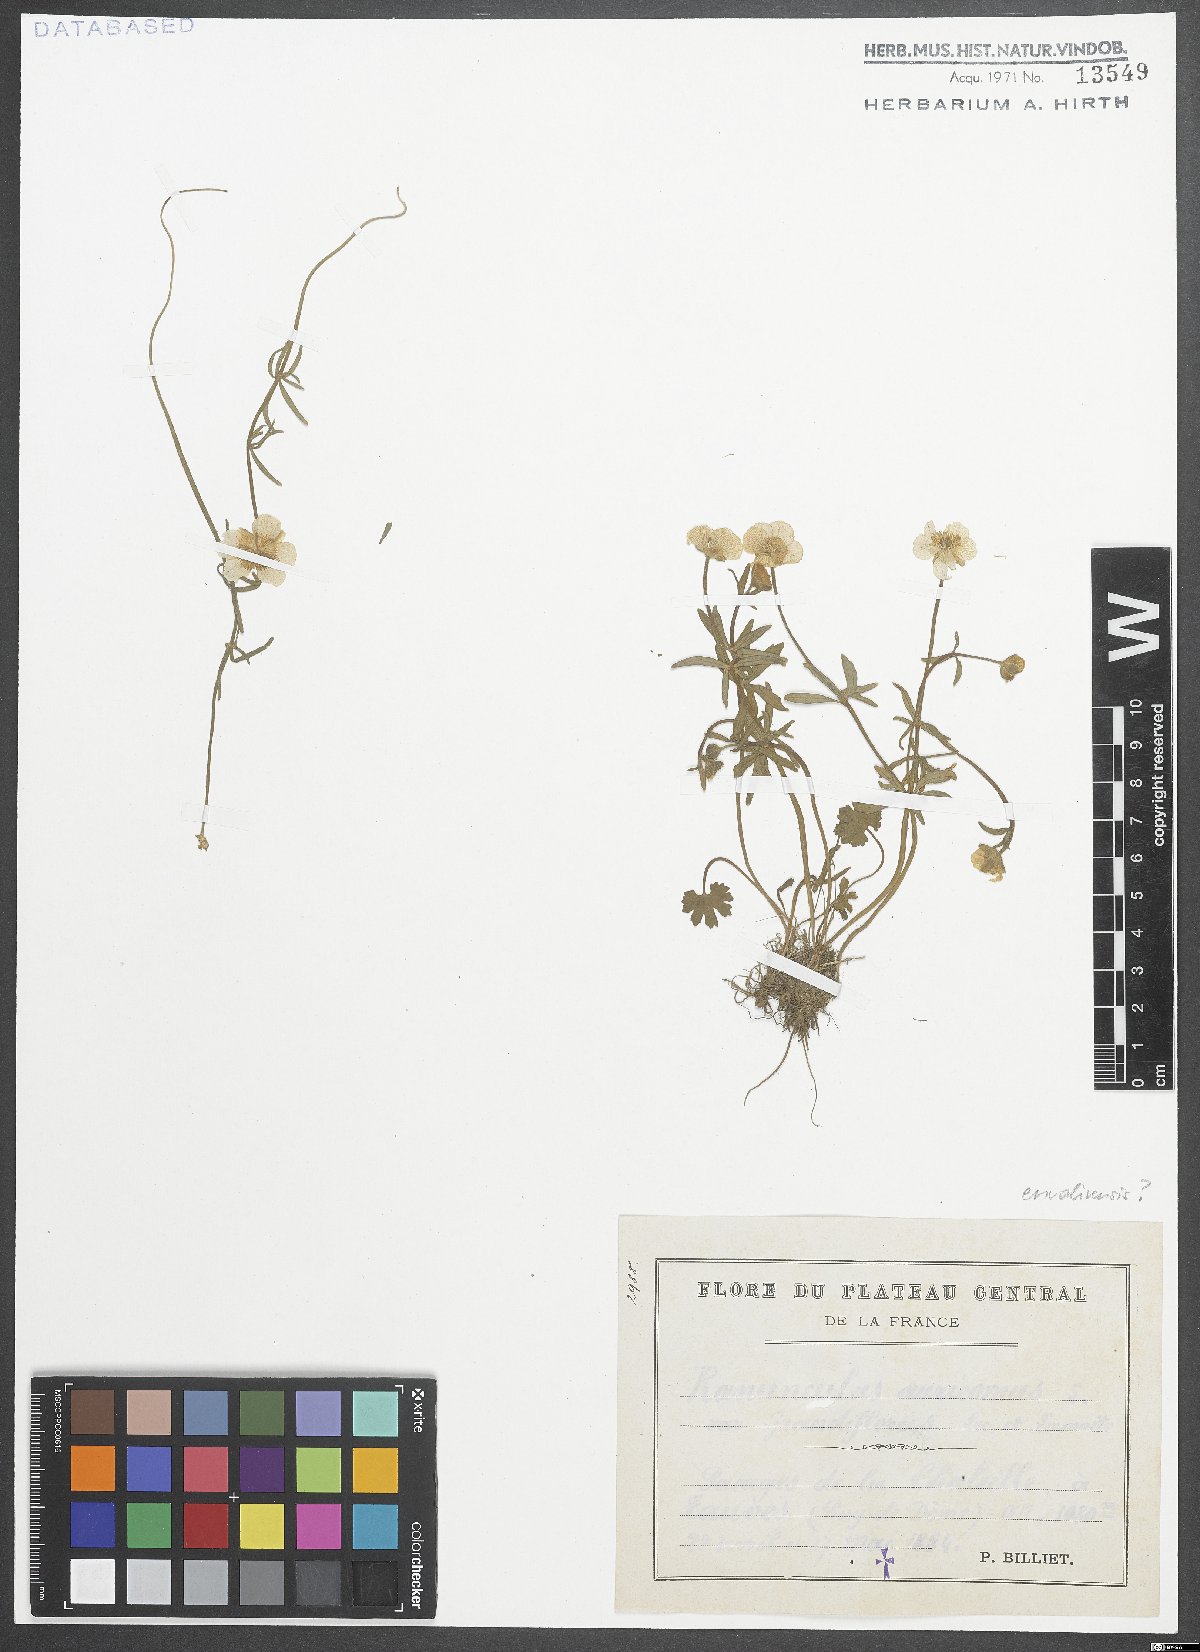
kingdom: Plantae
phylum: Tracheophyta
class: Magnoliopsida
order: Ranunculales
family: Ranunculaceae
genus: Ranunculus
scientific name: Ranunculus auricomus
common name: Goldilocks buttercup
